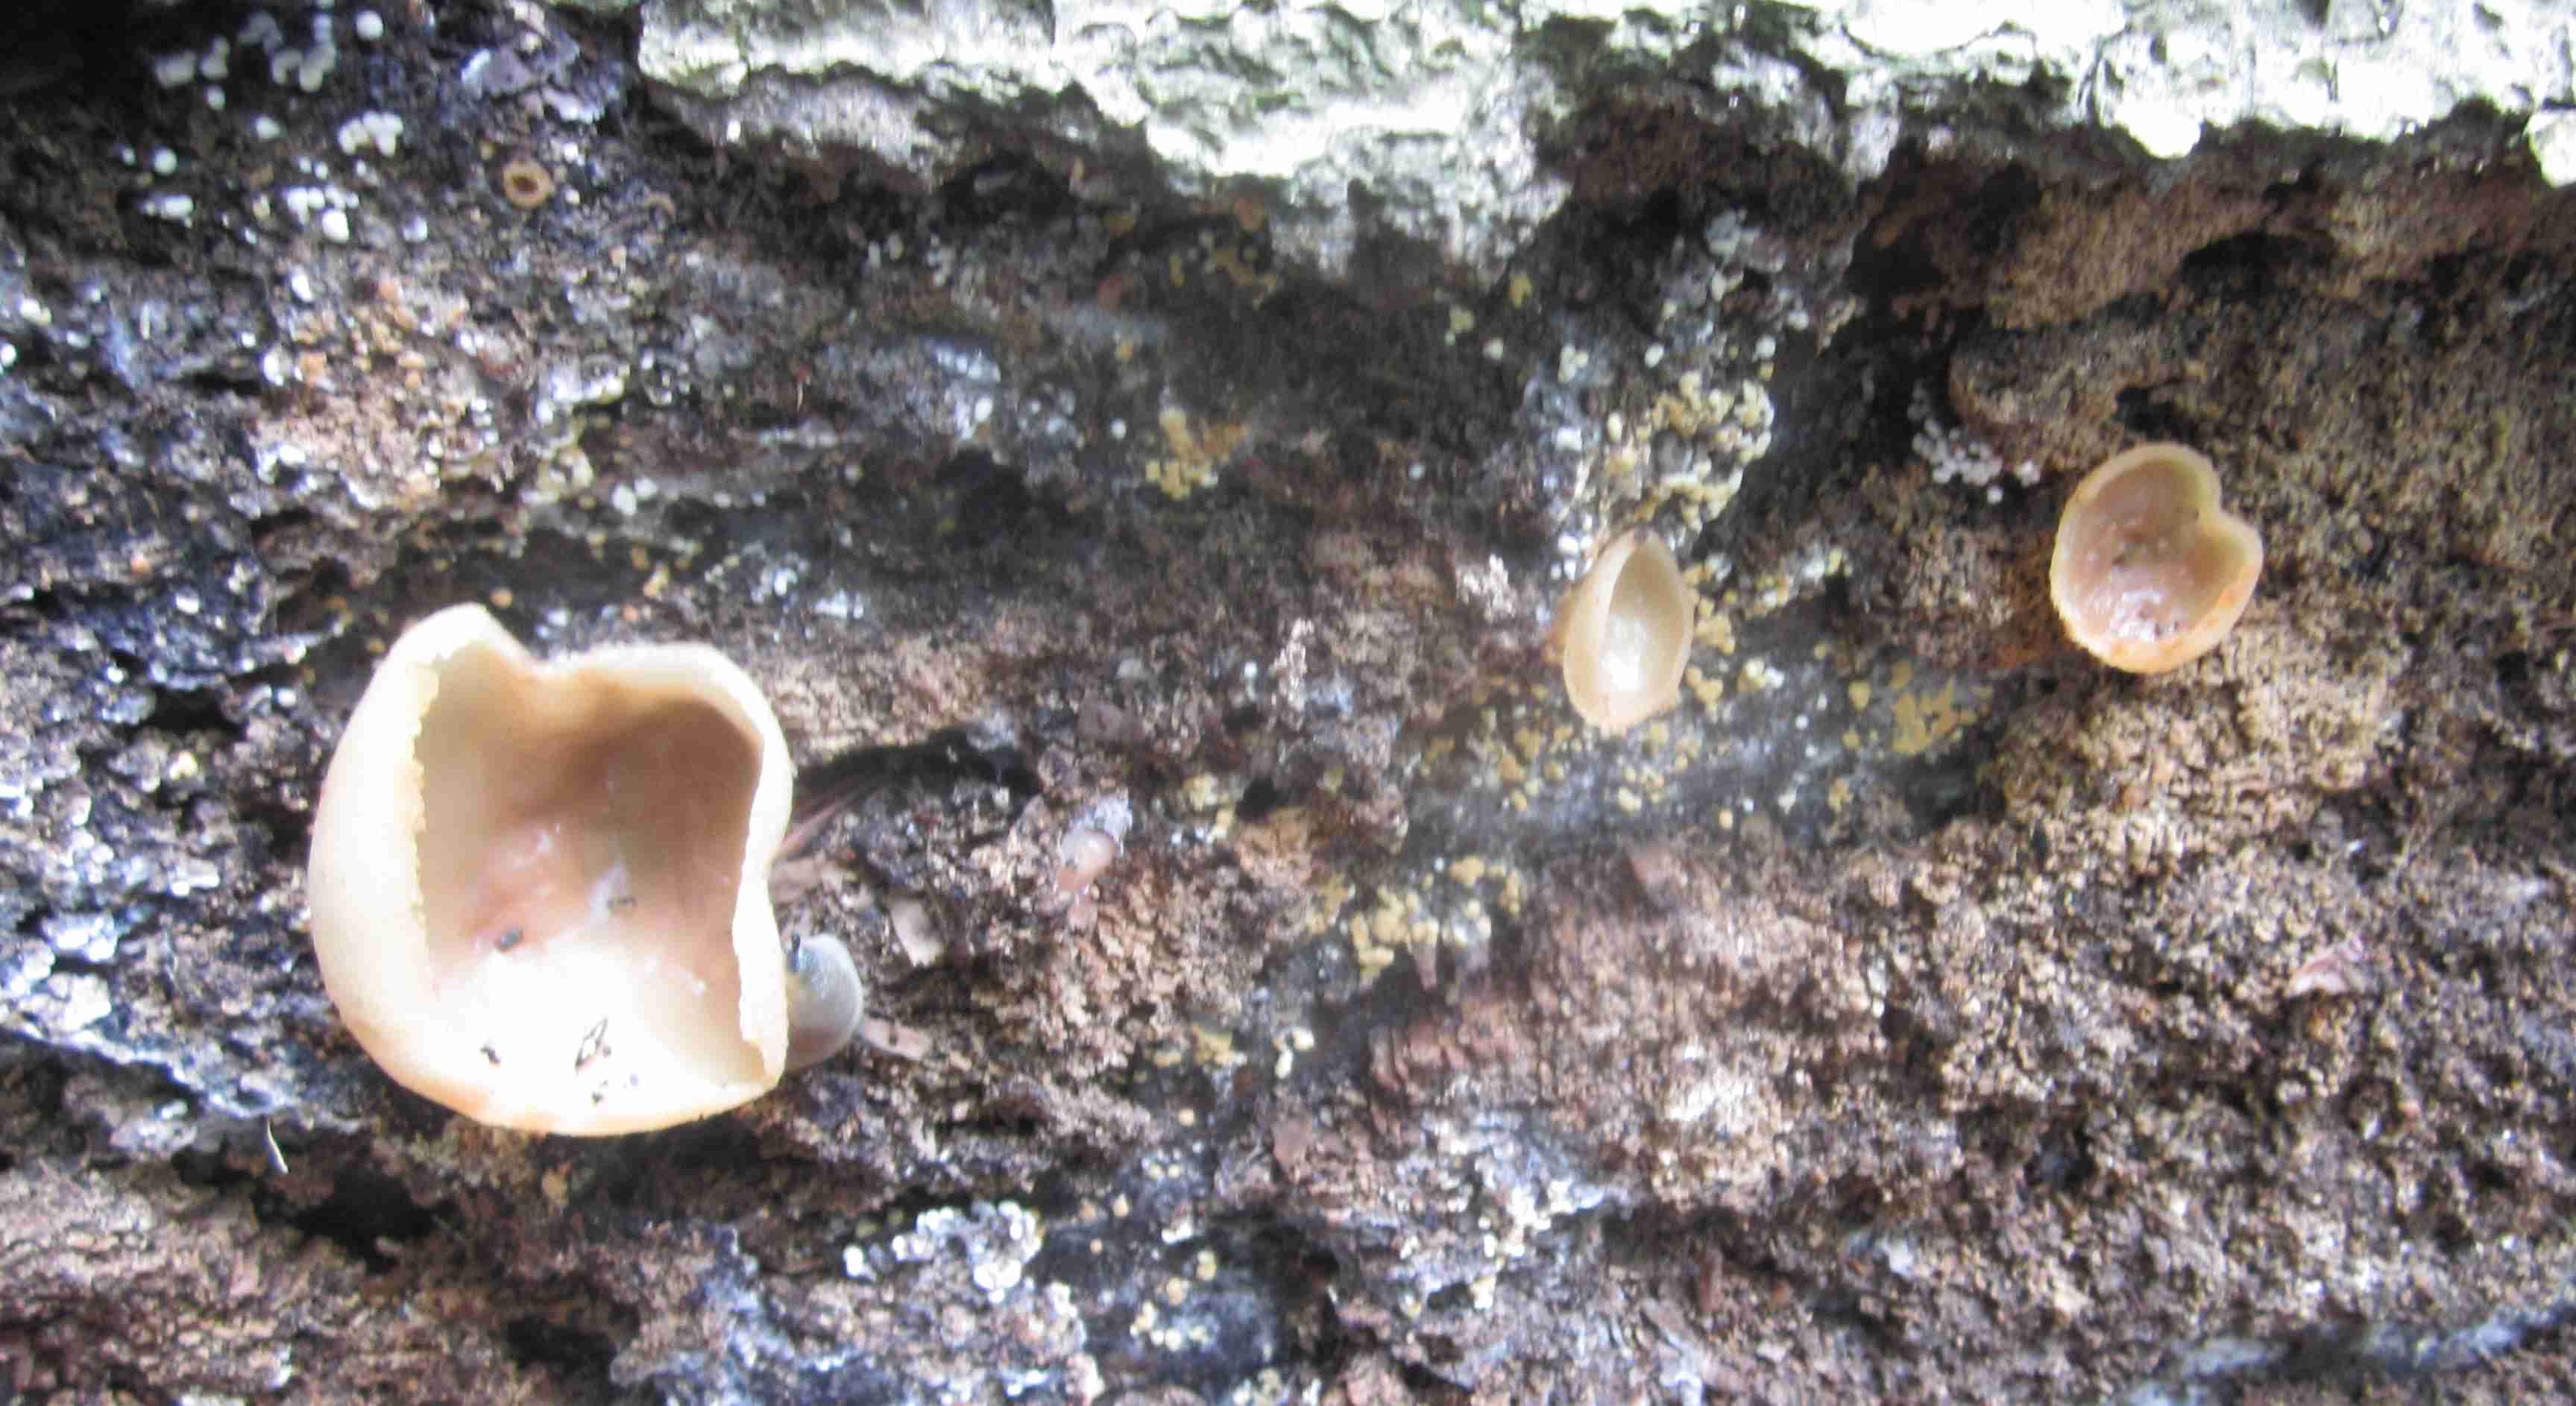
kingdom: Fungi
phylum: Ascomycota
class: Pezizomycetes
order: Pezizales
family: Pezizaceae
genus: Peziza
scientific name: Peziza varia
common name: Ved-bægersvamp
